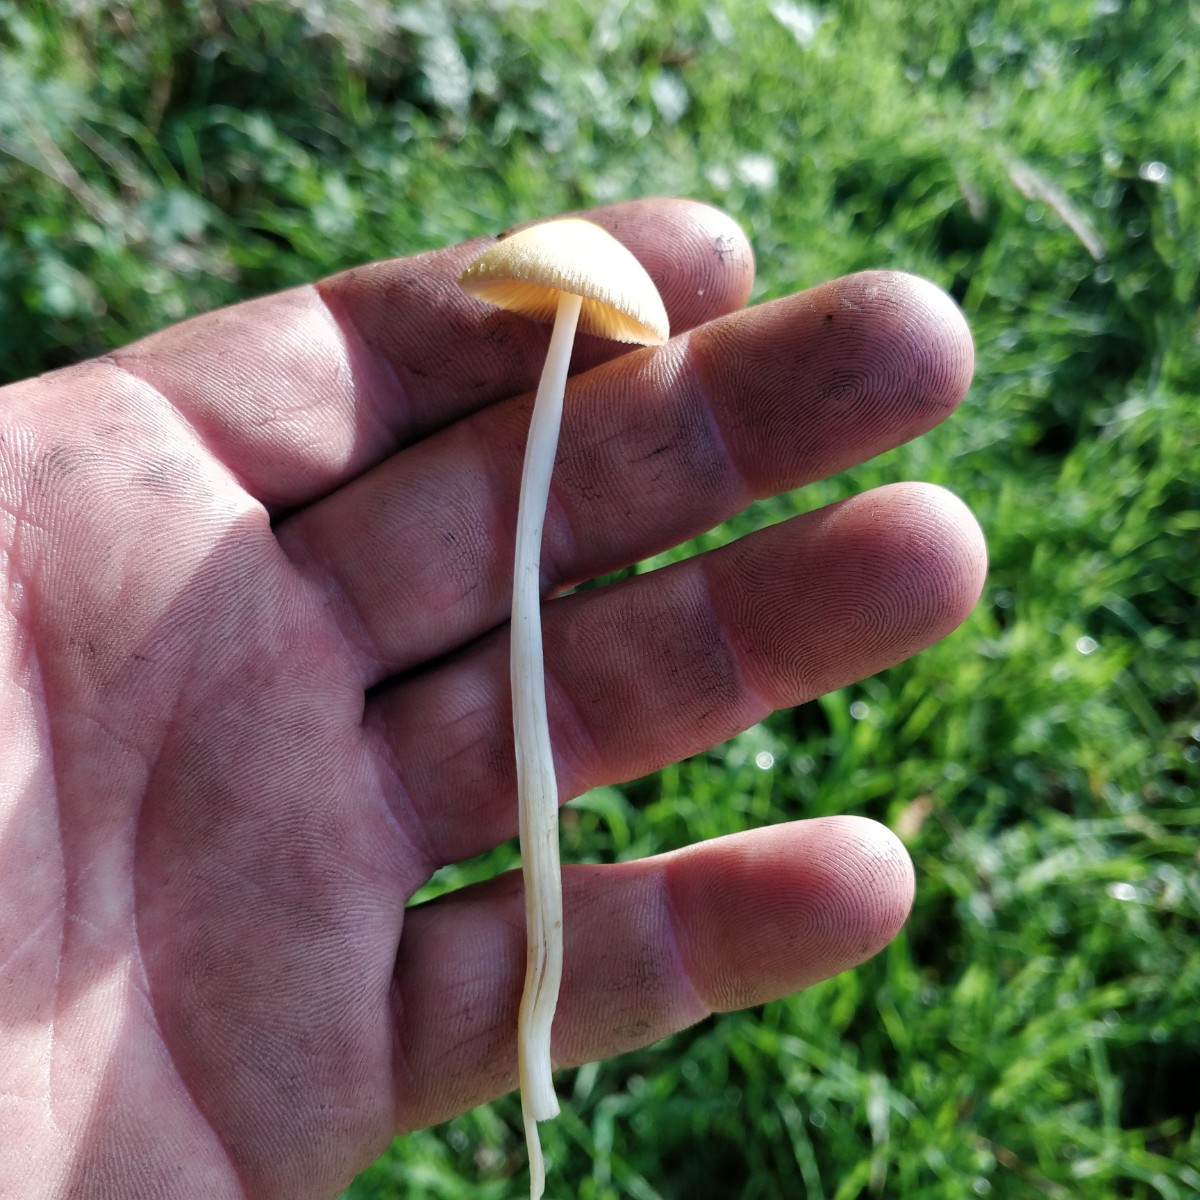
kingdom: Fungi
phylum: Basidiomycota
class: Agaricomycetes
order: Agaricales
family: Bolbitiaceae
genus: Bolbitius
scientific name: Bolbitius titubans
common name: almindelig gulhat
